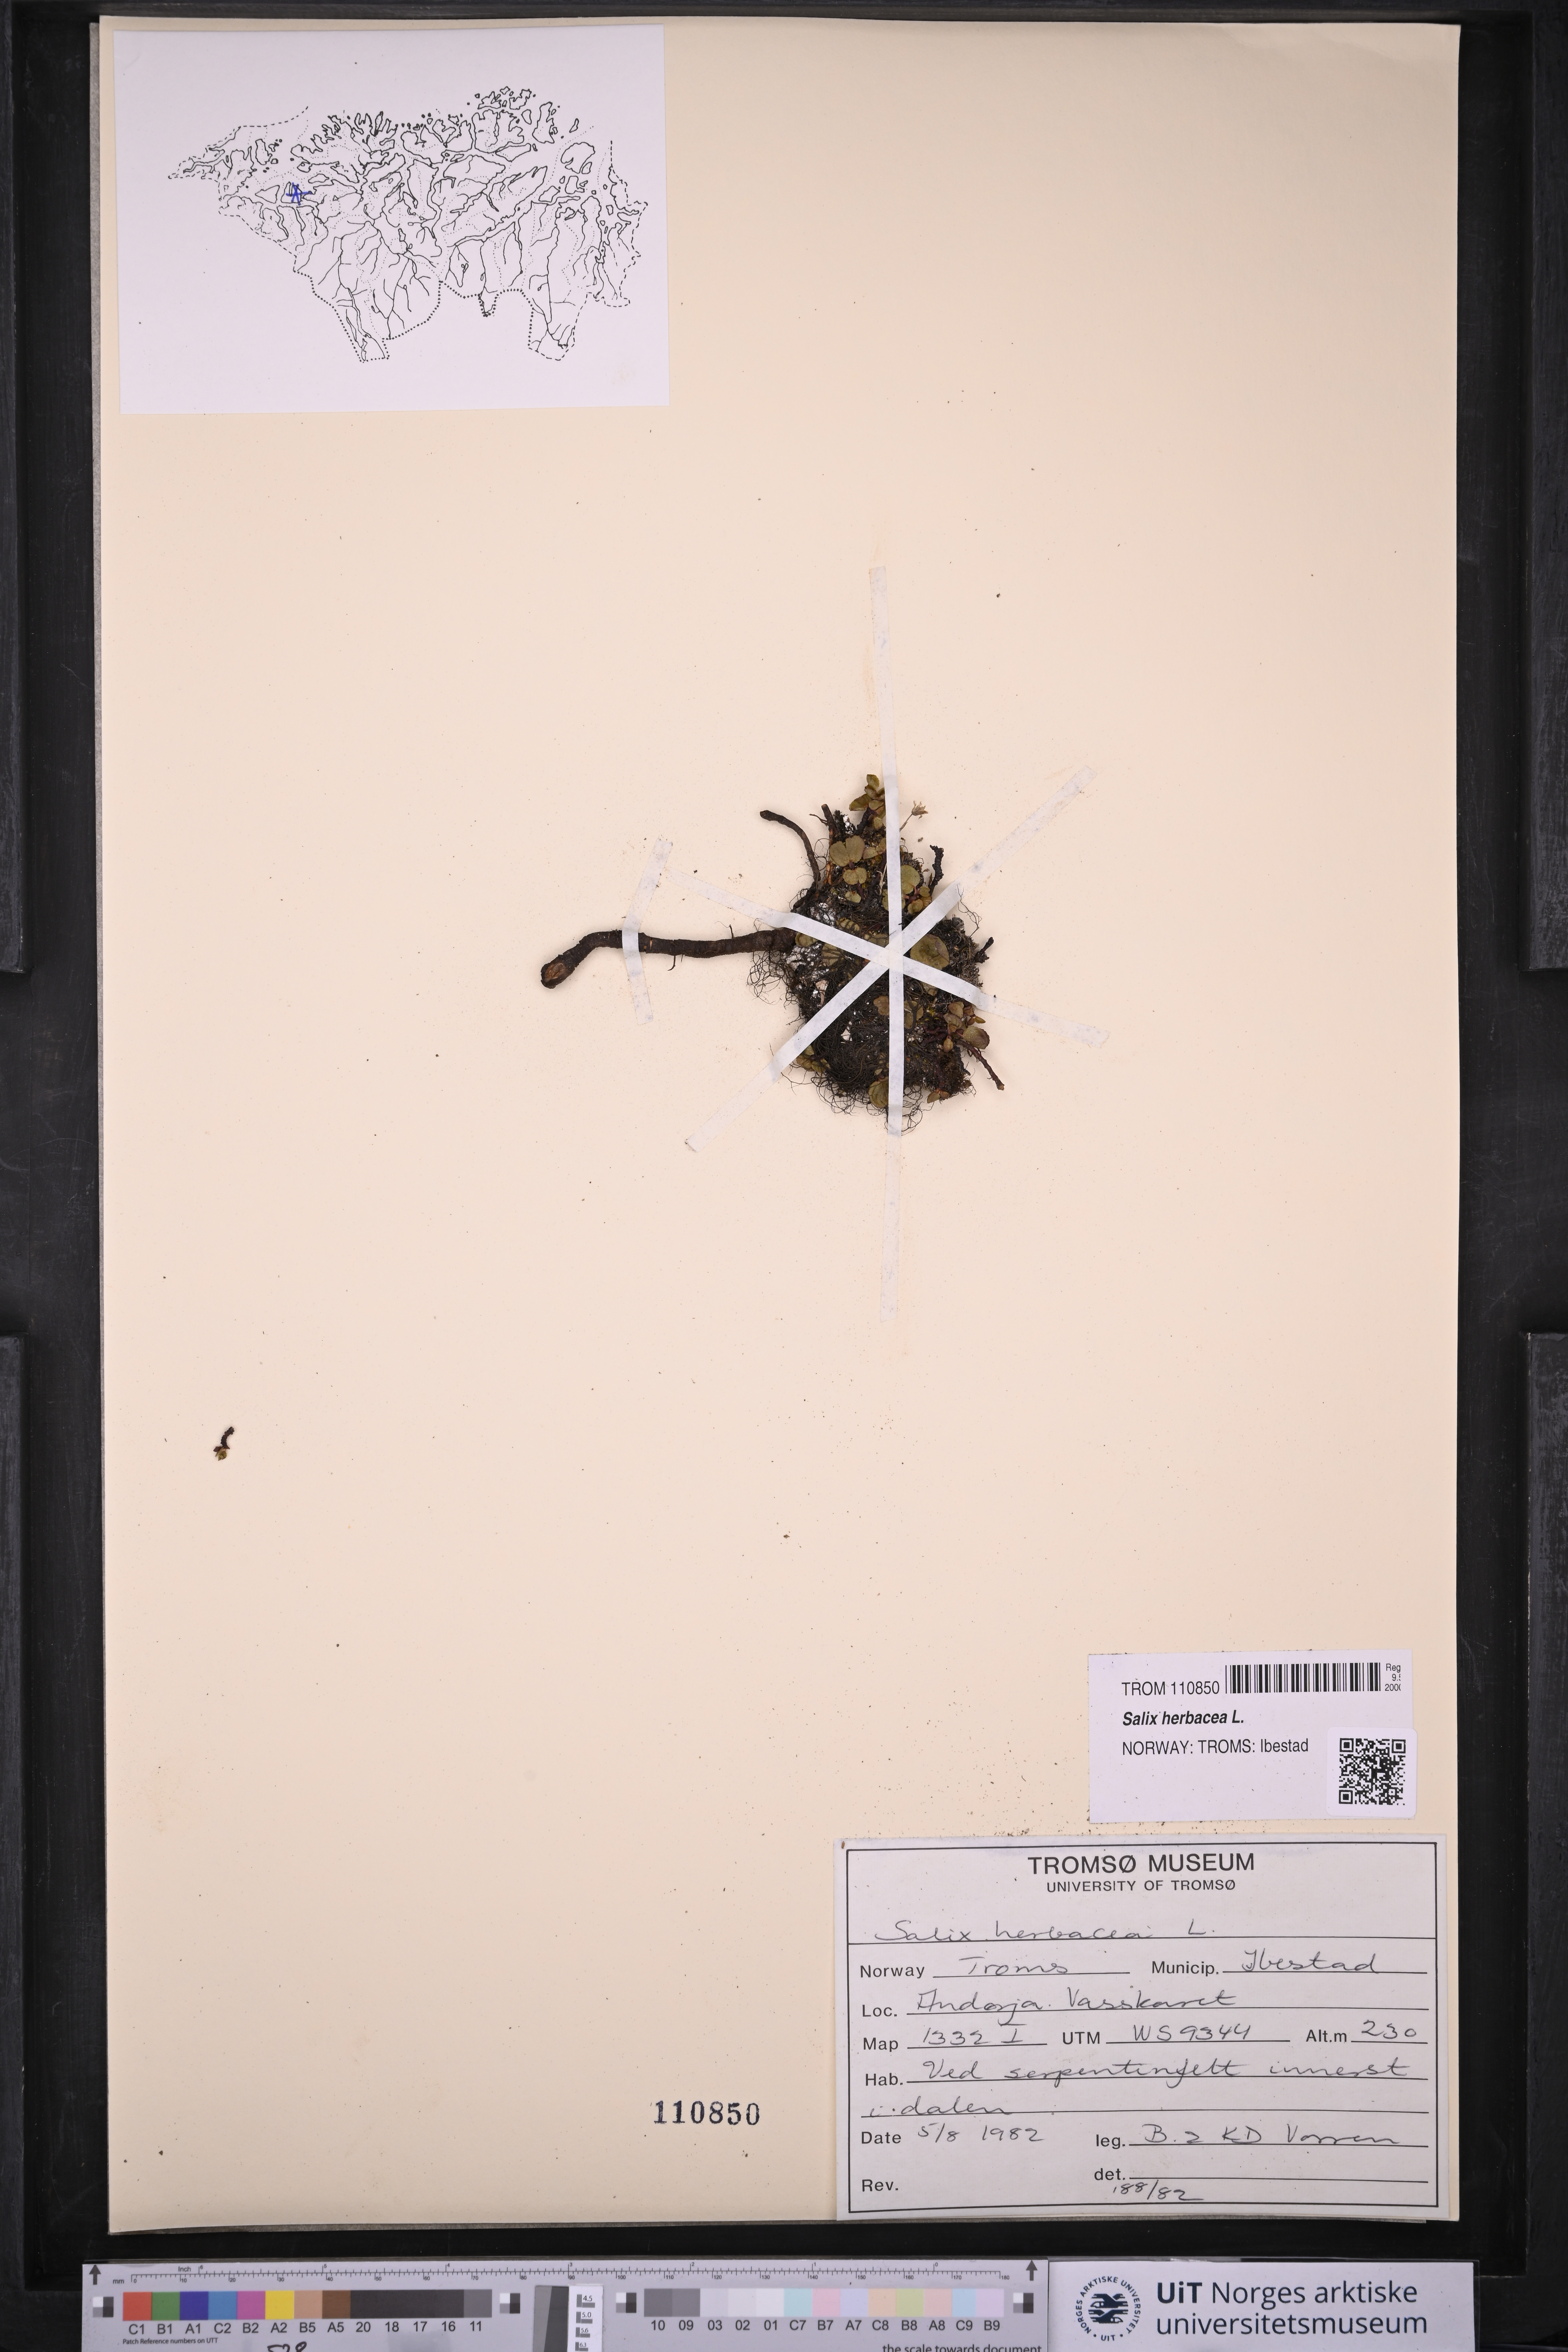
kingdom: Plantae
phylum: Tracheophyta
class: Magnoliopsida
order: Malpighiales
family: Salicaceae
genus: Salix
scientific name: Salix herbacea
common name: Dwarf willow
